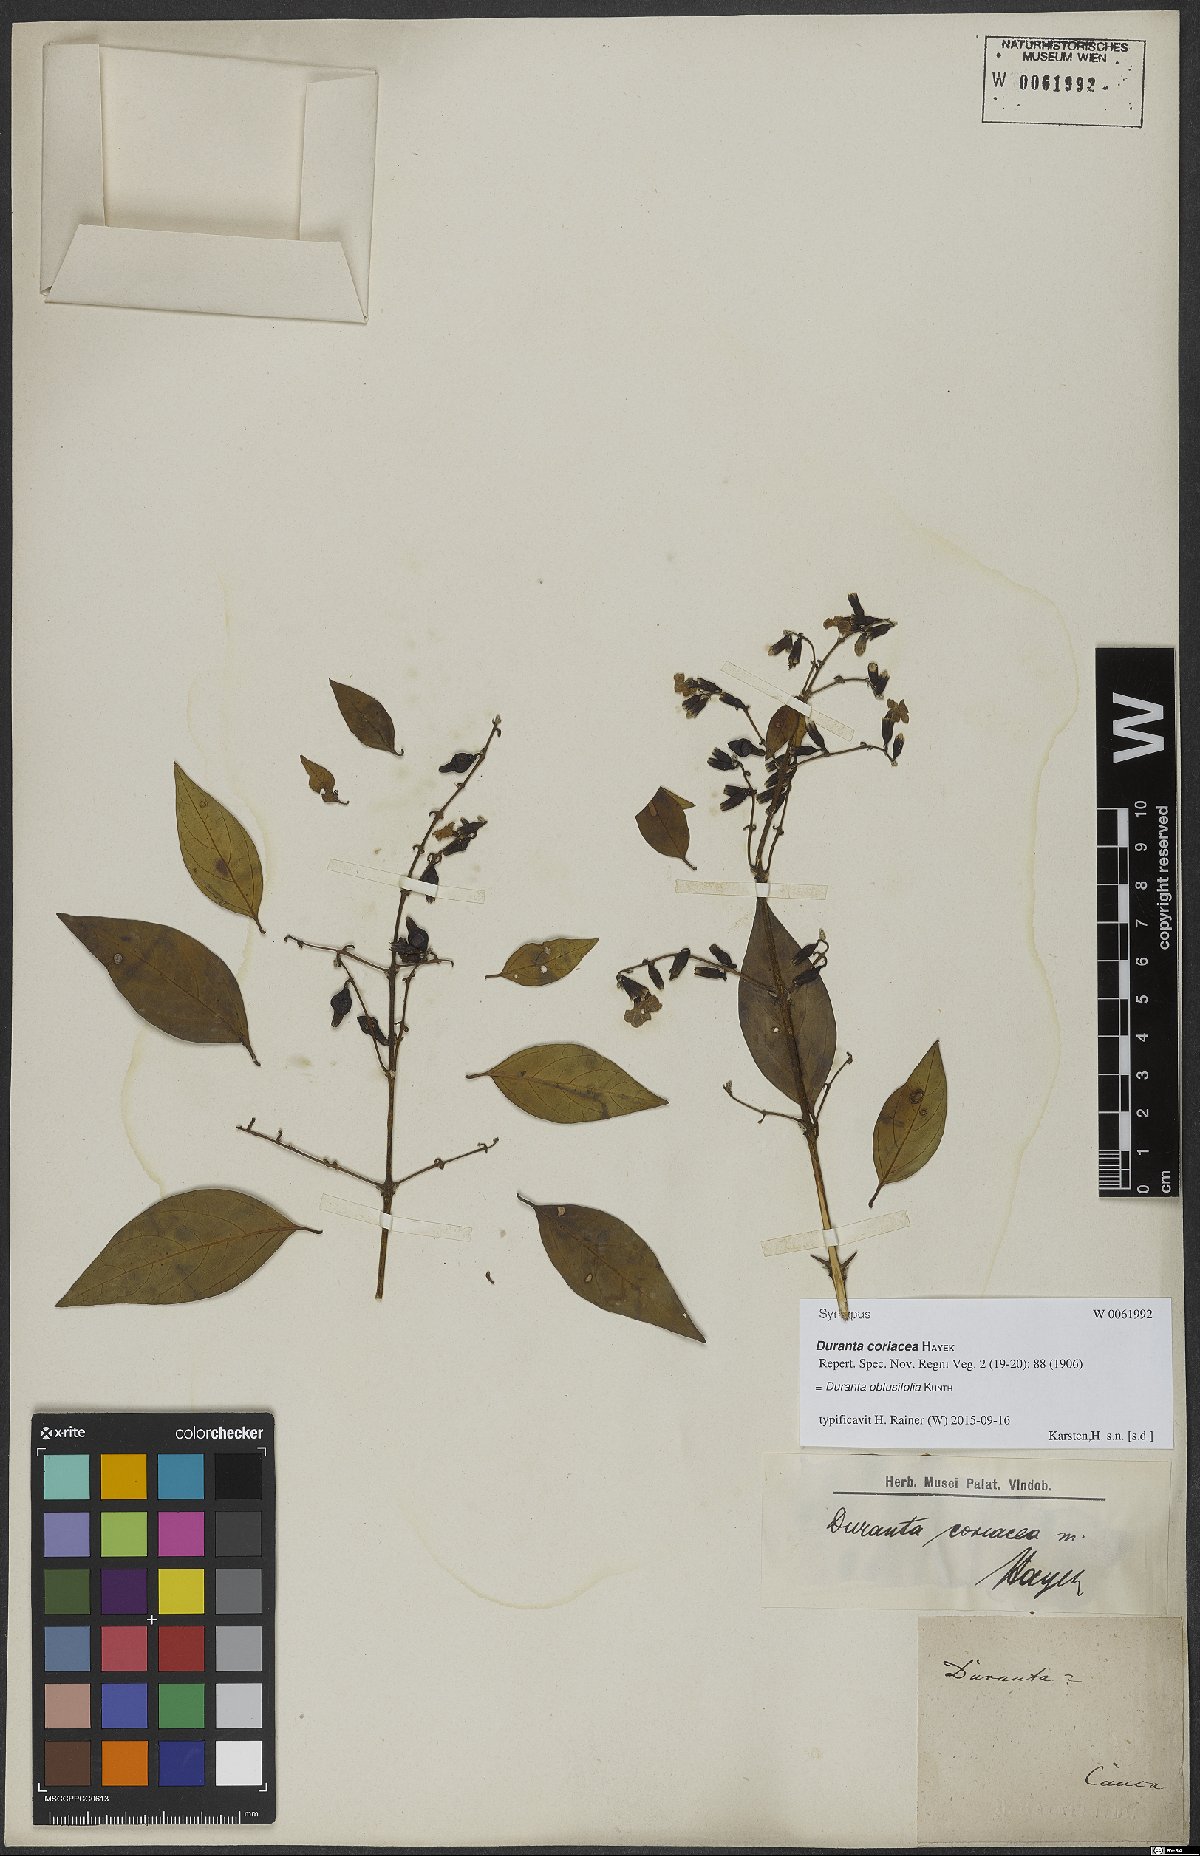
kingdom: Plantae
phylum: Tracheophyta
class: Magnoliopsida
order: Lamiales
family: Verbenaceae
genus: Duranta
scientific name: Duranta obtusifolia
